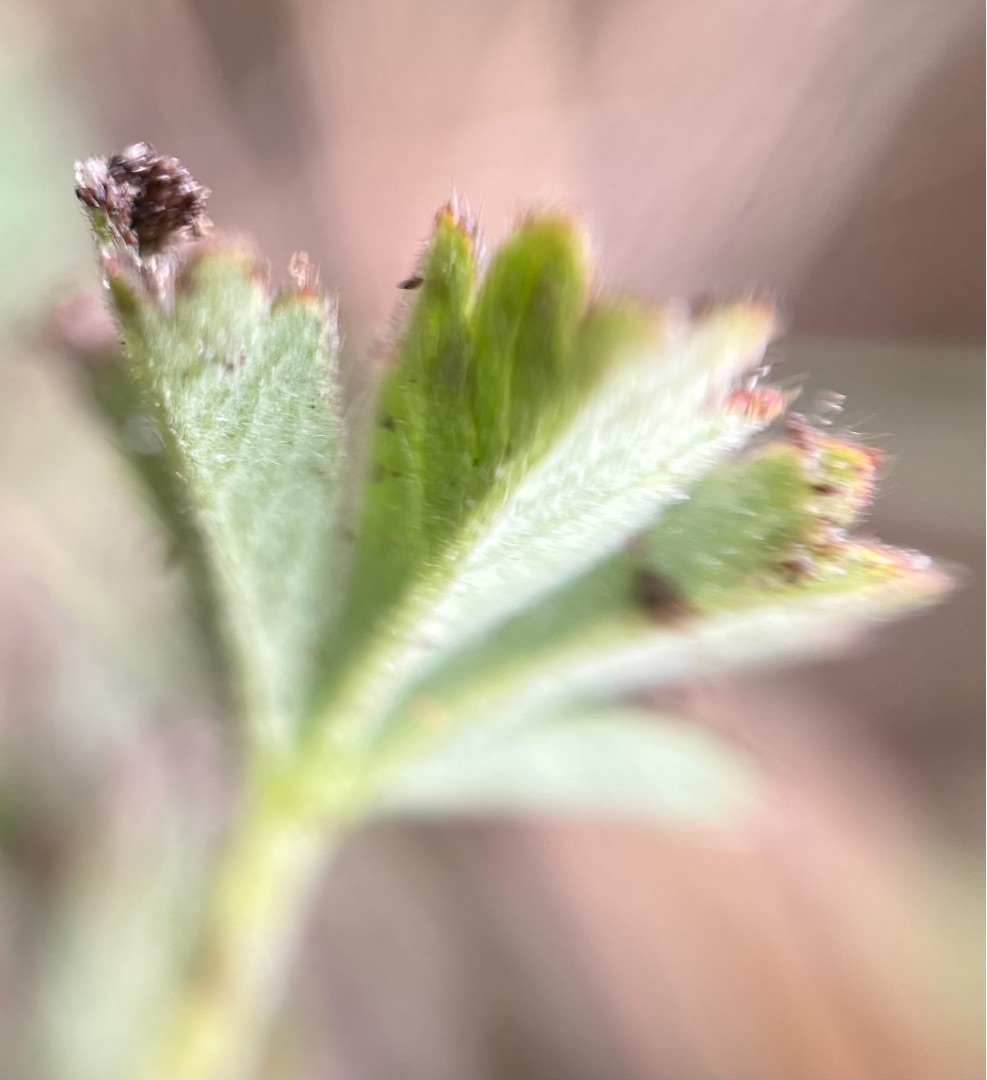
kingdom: Plantae
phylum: Tracheophyta
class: Magnoliopsida
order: Rosales
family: Rosaceae
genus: Potentilla
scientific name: Potentilla subarenaria
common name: Grå vår-potentil
